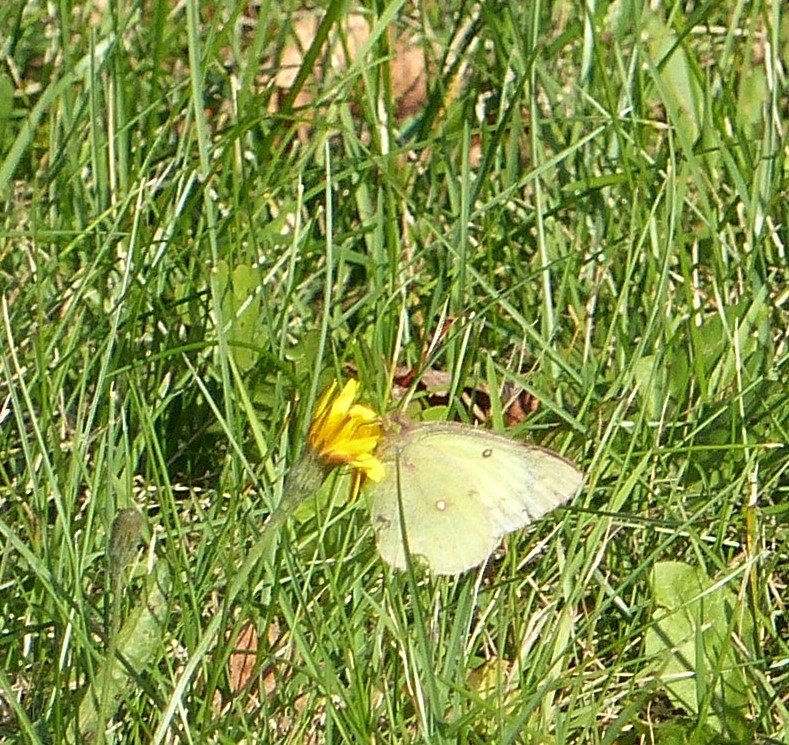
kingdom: Animalia
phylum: Arthropoda
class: Insecta
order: Lepidoptera
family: Pieridae
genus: Colias
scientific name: Colias philodice
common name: Clouded Sulphur
